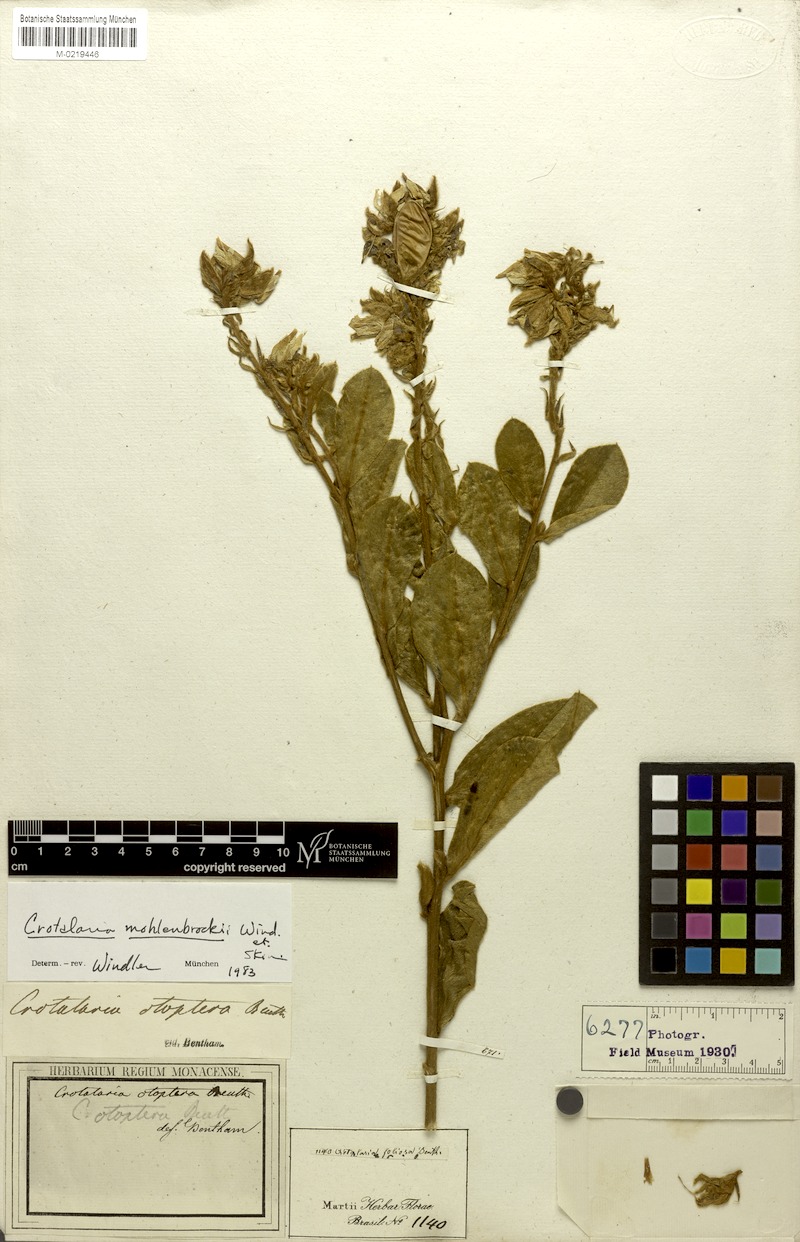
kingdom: Plantae
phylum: Tracheophyta
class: Magnoliopsida
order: Fabales
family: Fabaceae
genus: Crotalaria
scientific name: Crotalaria martiana
